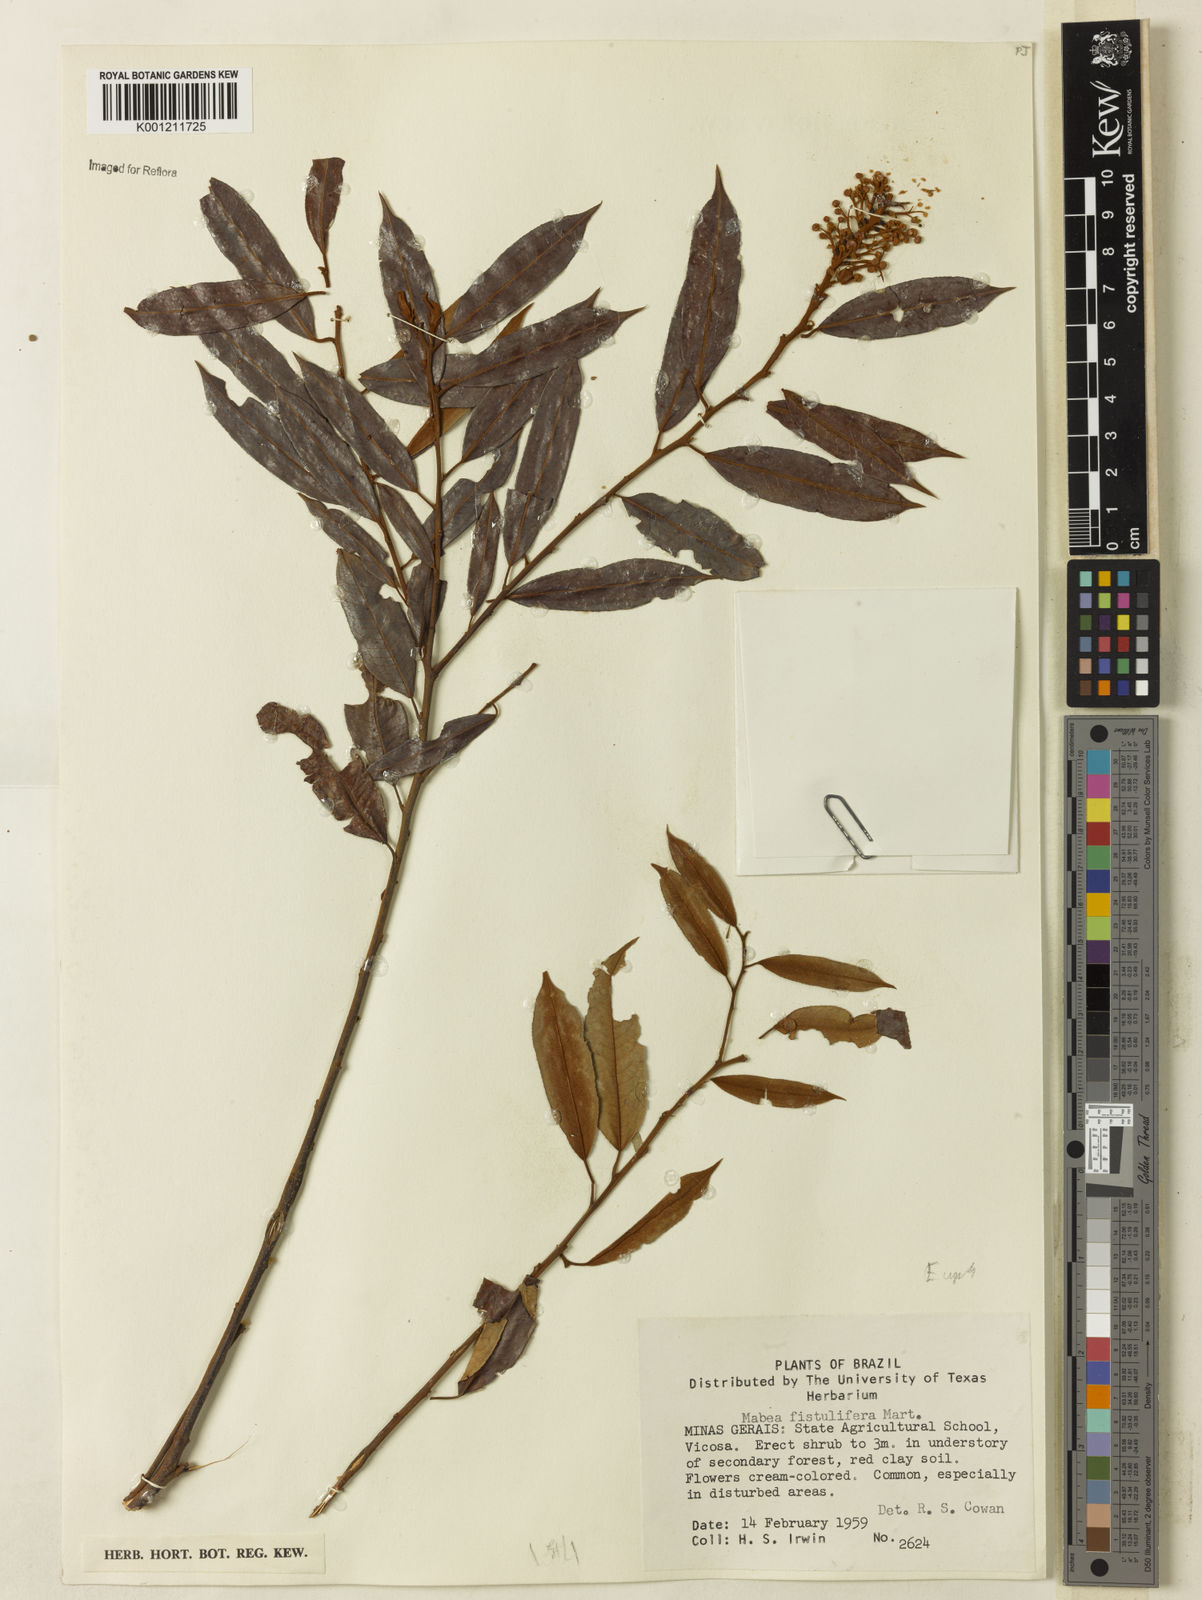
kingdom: Plantae
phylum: Tracheophyta
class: Magnoliopsida
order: Malpighiales
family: Euphorbiaceae
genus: Mabea
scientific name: Mabea fistulifera
